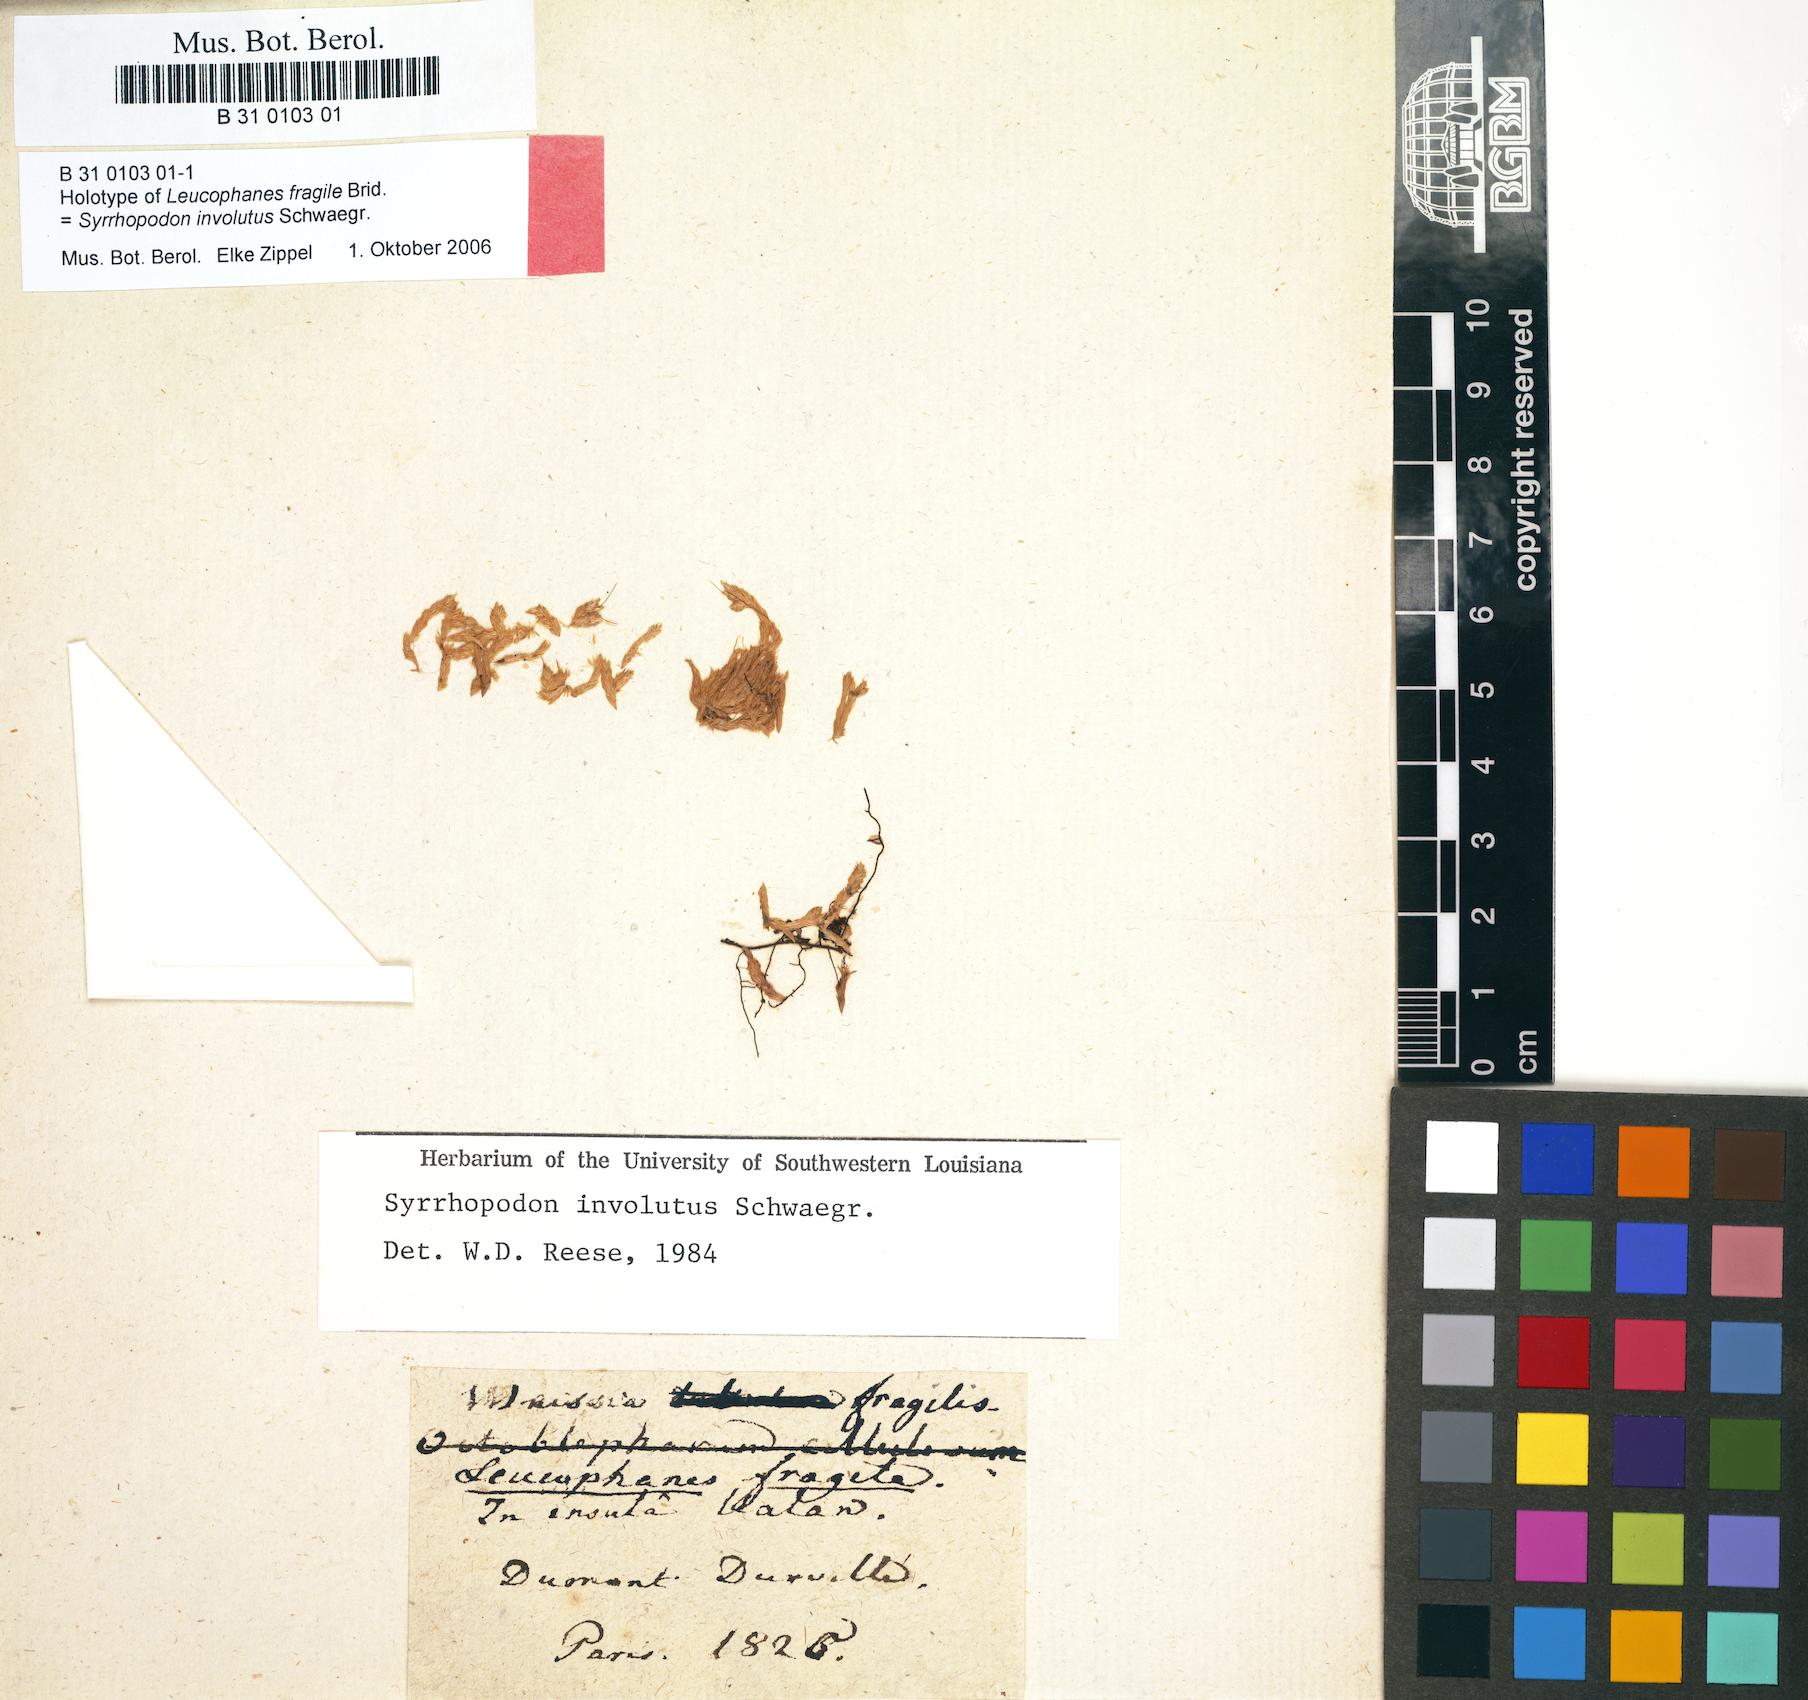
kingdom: Plantae
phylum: Bryophyta
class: Bryopsida
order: Dicranales
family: Calymperaceae
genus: Syrrhopodon
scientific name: Syrrhopodon involutus
